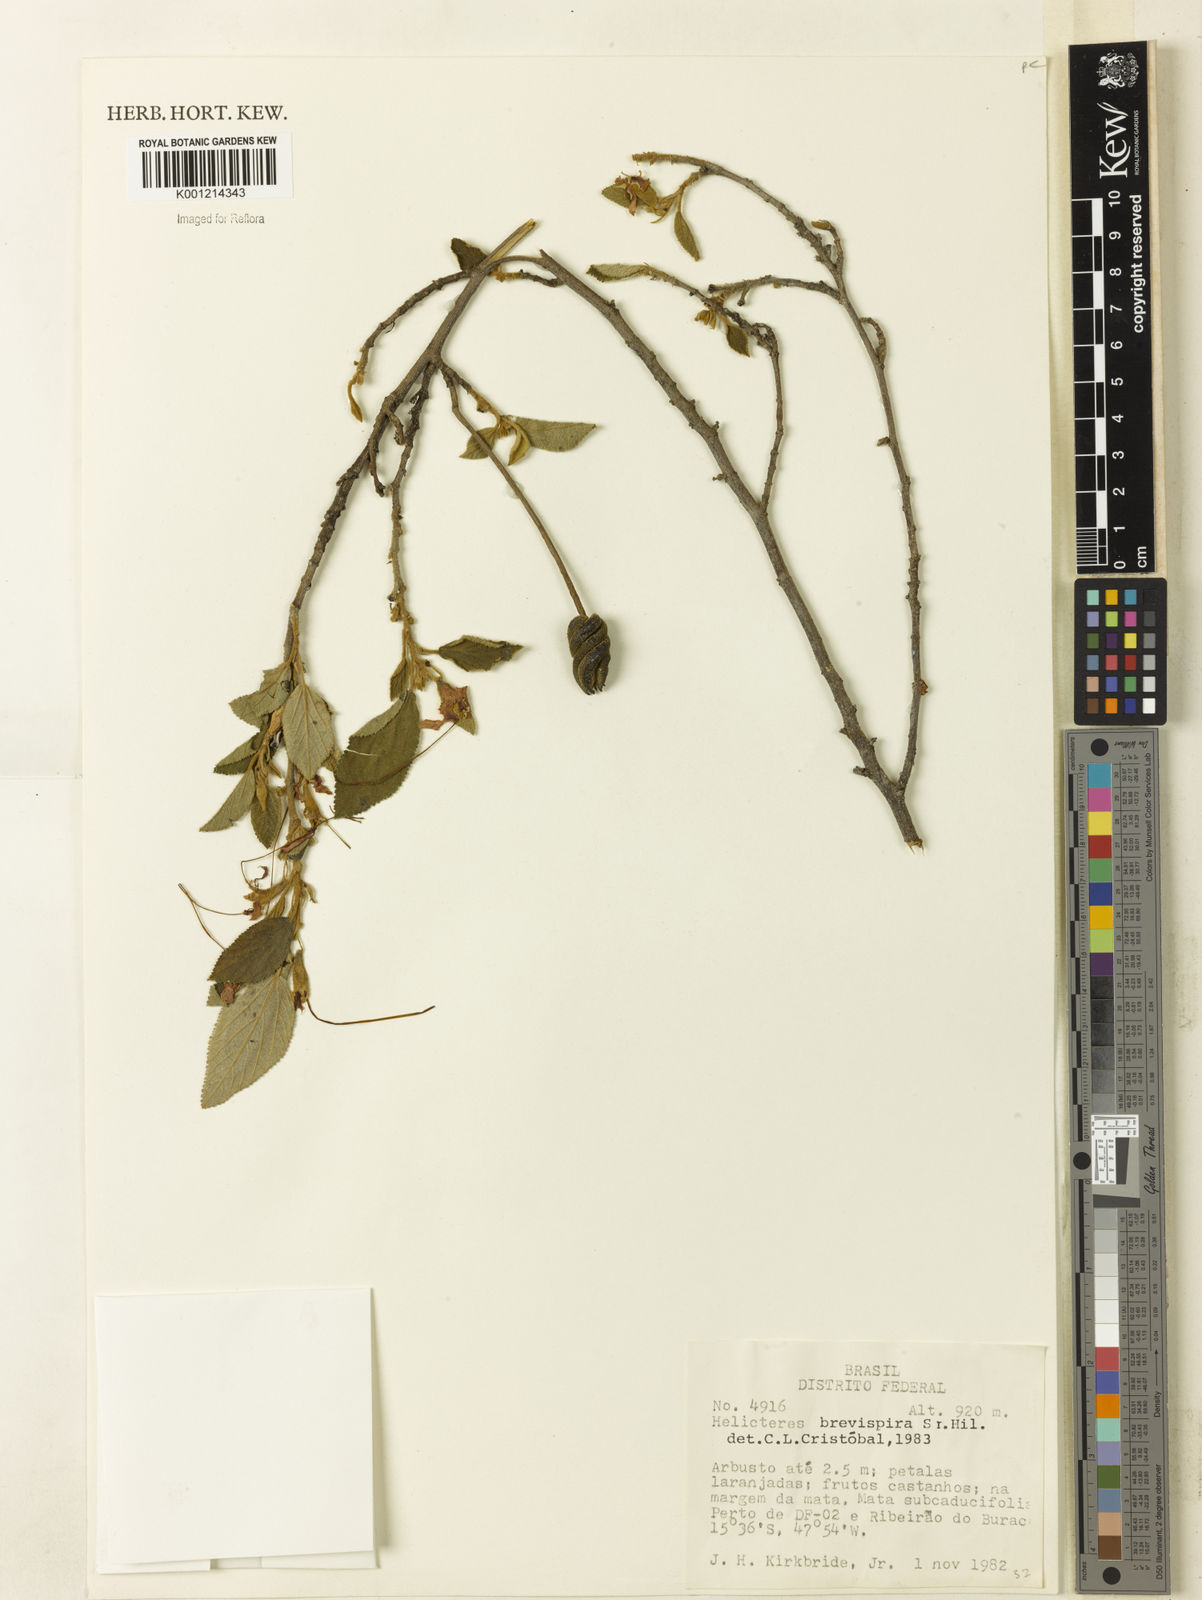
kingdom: Plantae
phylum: Tracheophyta
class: Magnoliopsida
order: Malvales
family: Malvaceae
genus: Helicteres
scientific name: Helicteres
